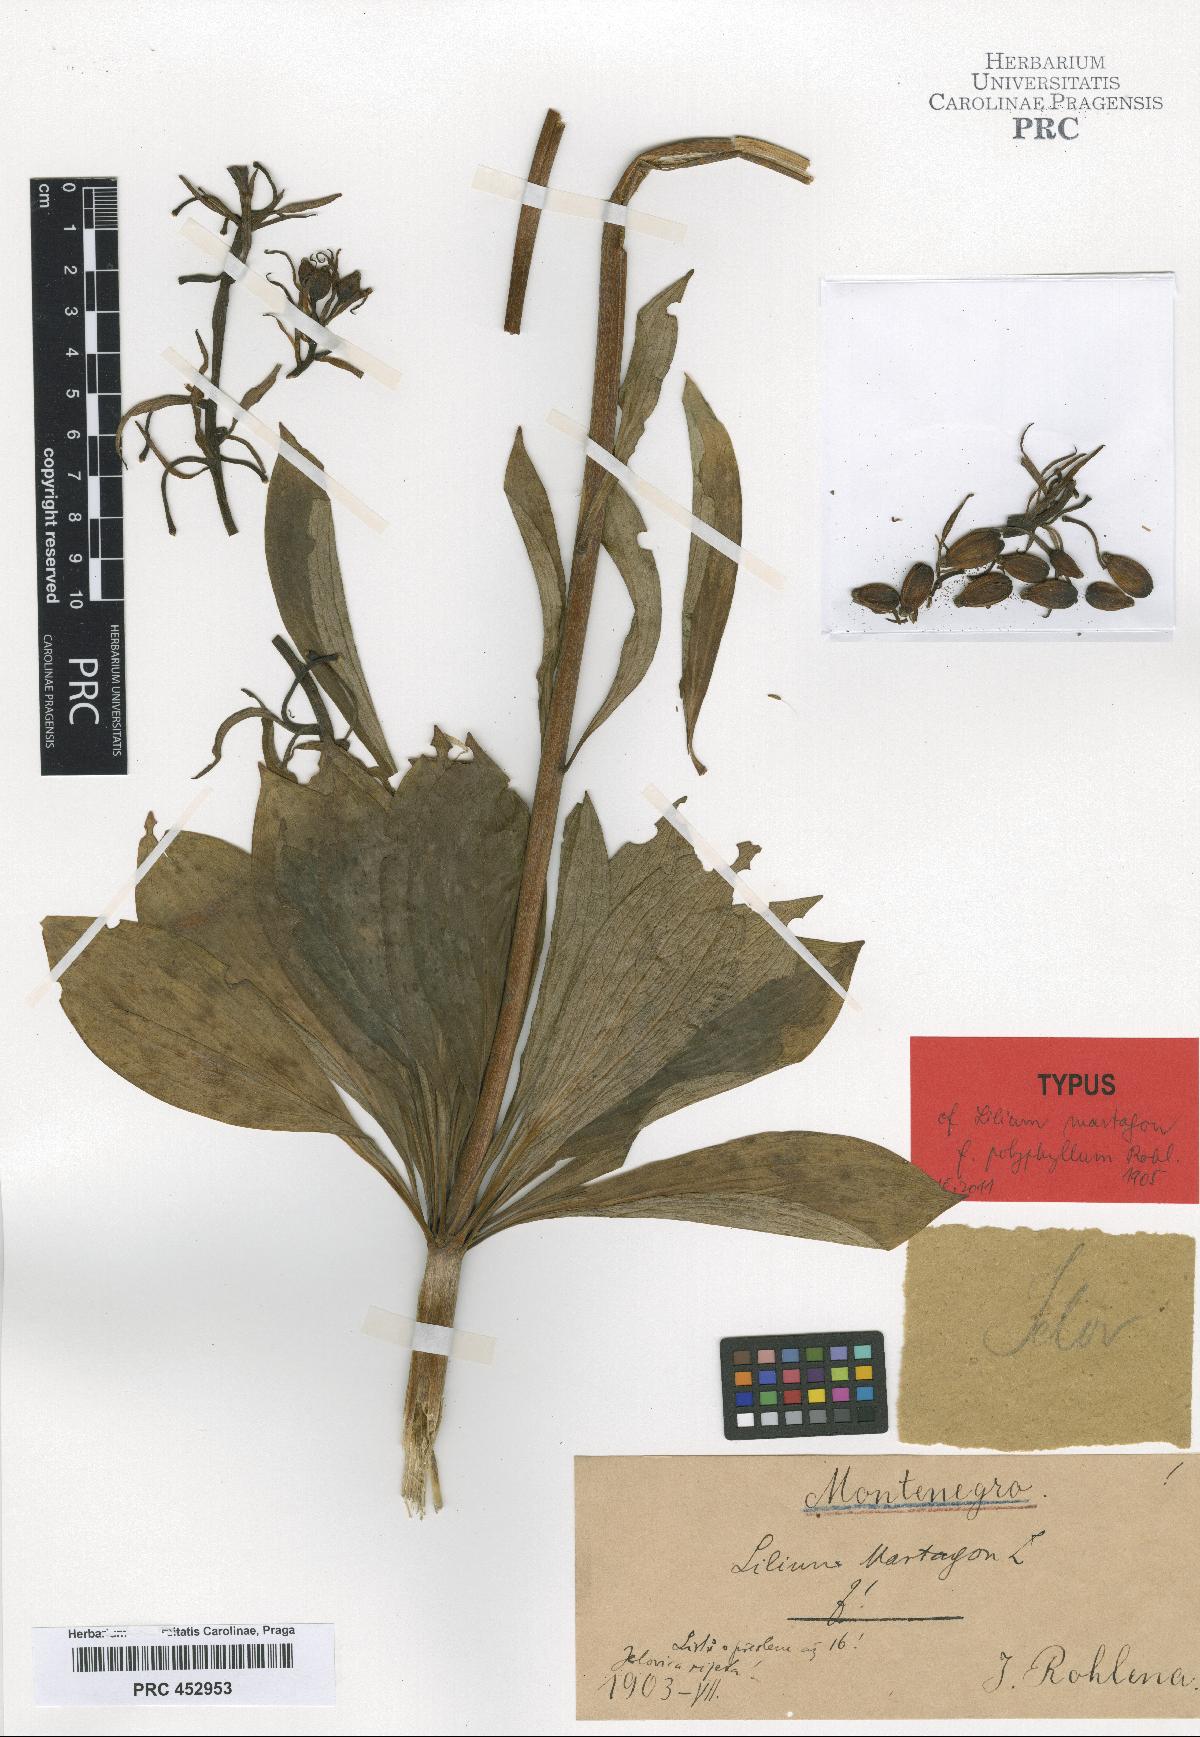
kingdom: Plantae
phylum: Tracheophyta
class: Liliopsida
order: Liliales
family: Liliaceae
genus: Lilium
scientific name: Lilium martagon
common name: Martagon lily
